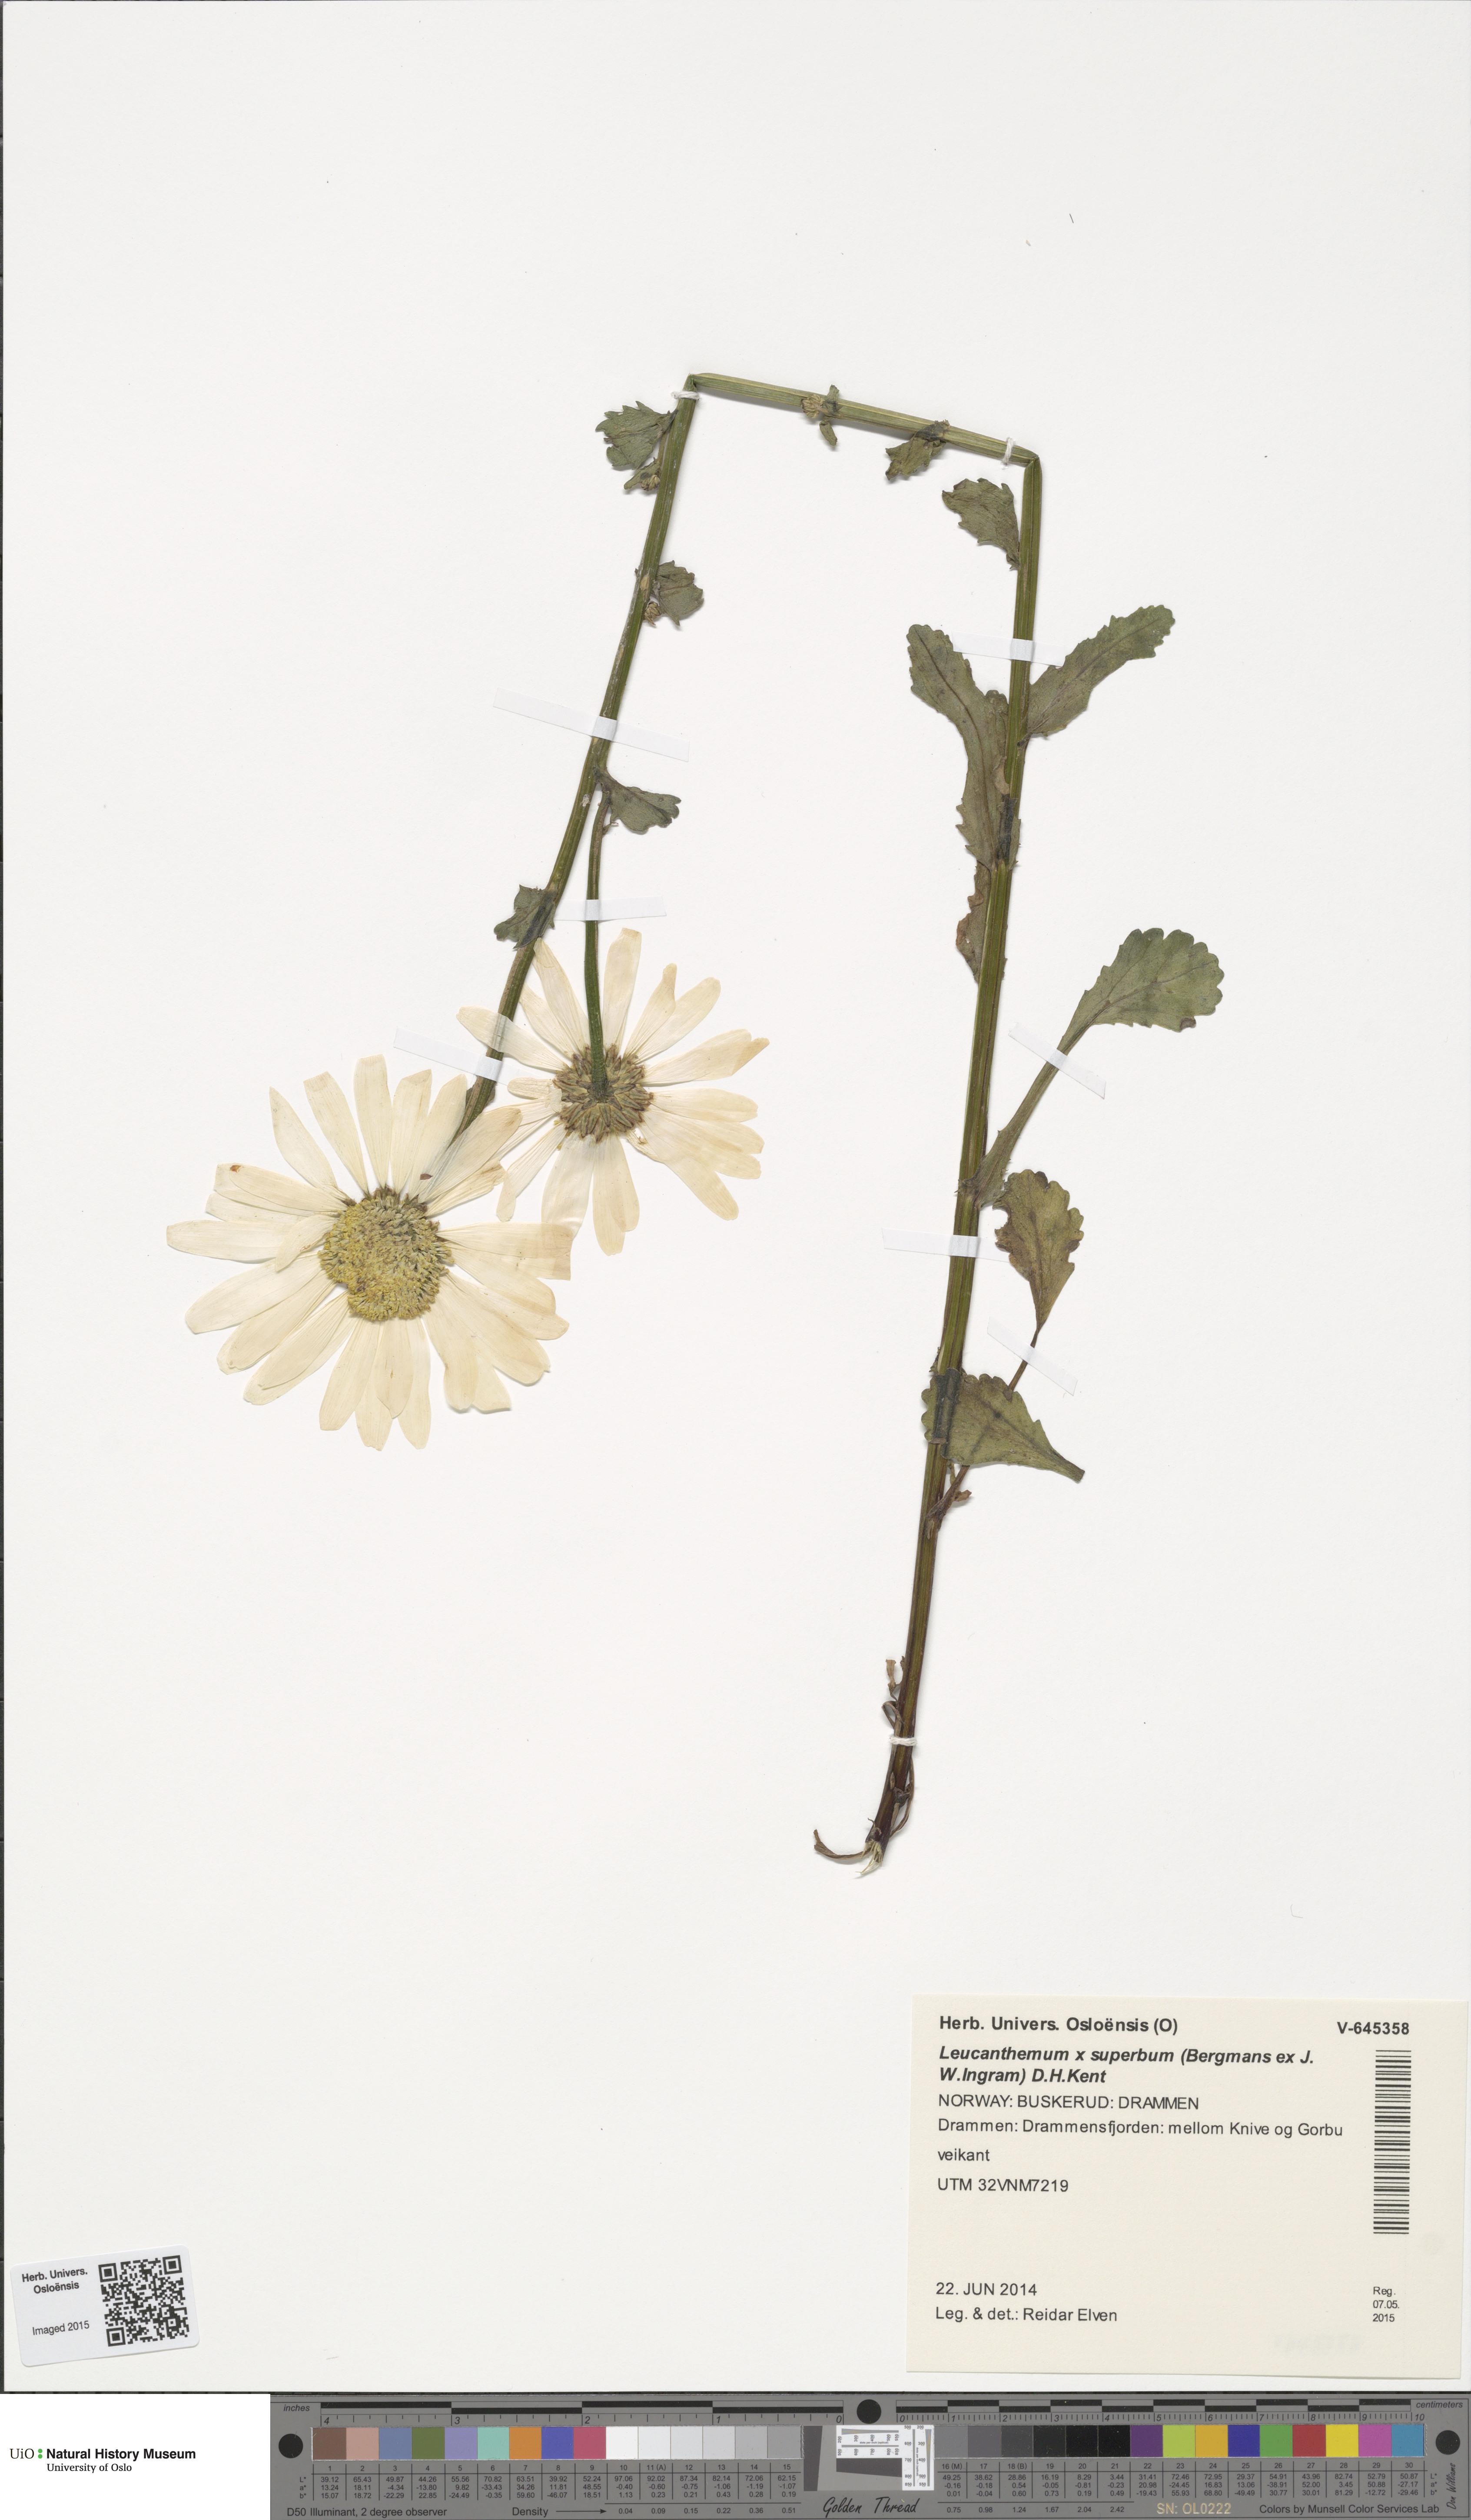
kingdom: Plantae
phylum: Tracheophyta
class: Magnoliopsida
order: Asterales
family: Asteraceae
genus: Leucanthemum
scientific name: Leucanthemum maximum
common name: Max chrysanthemum
